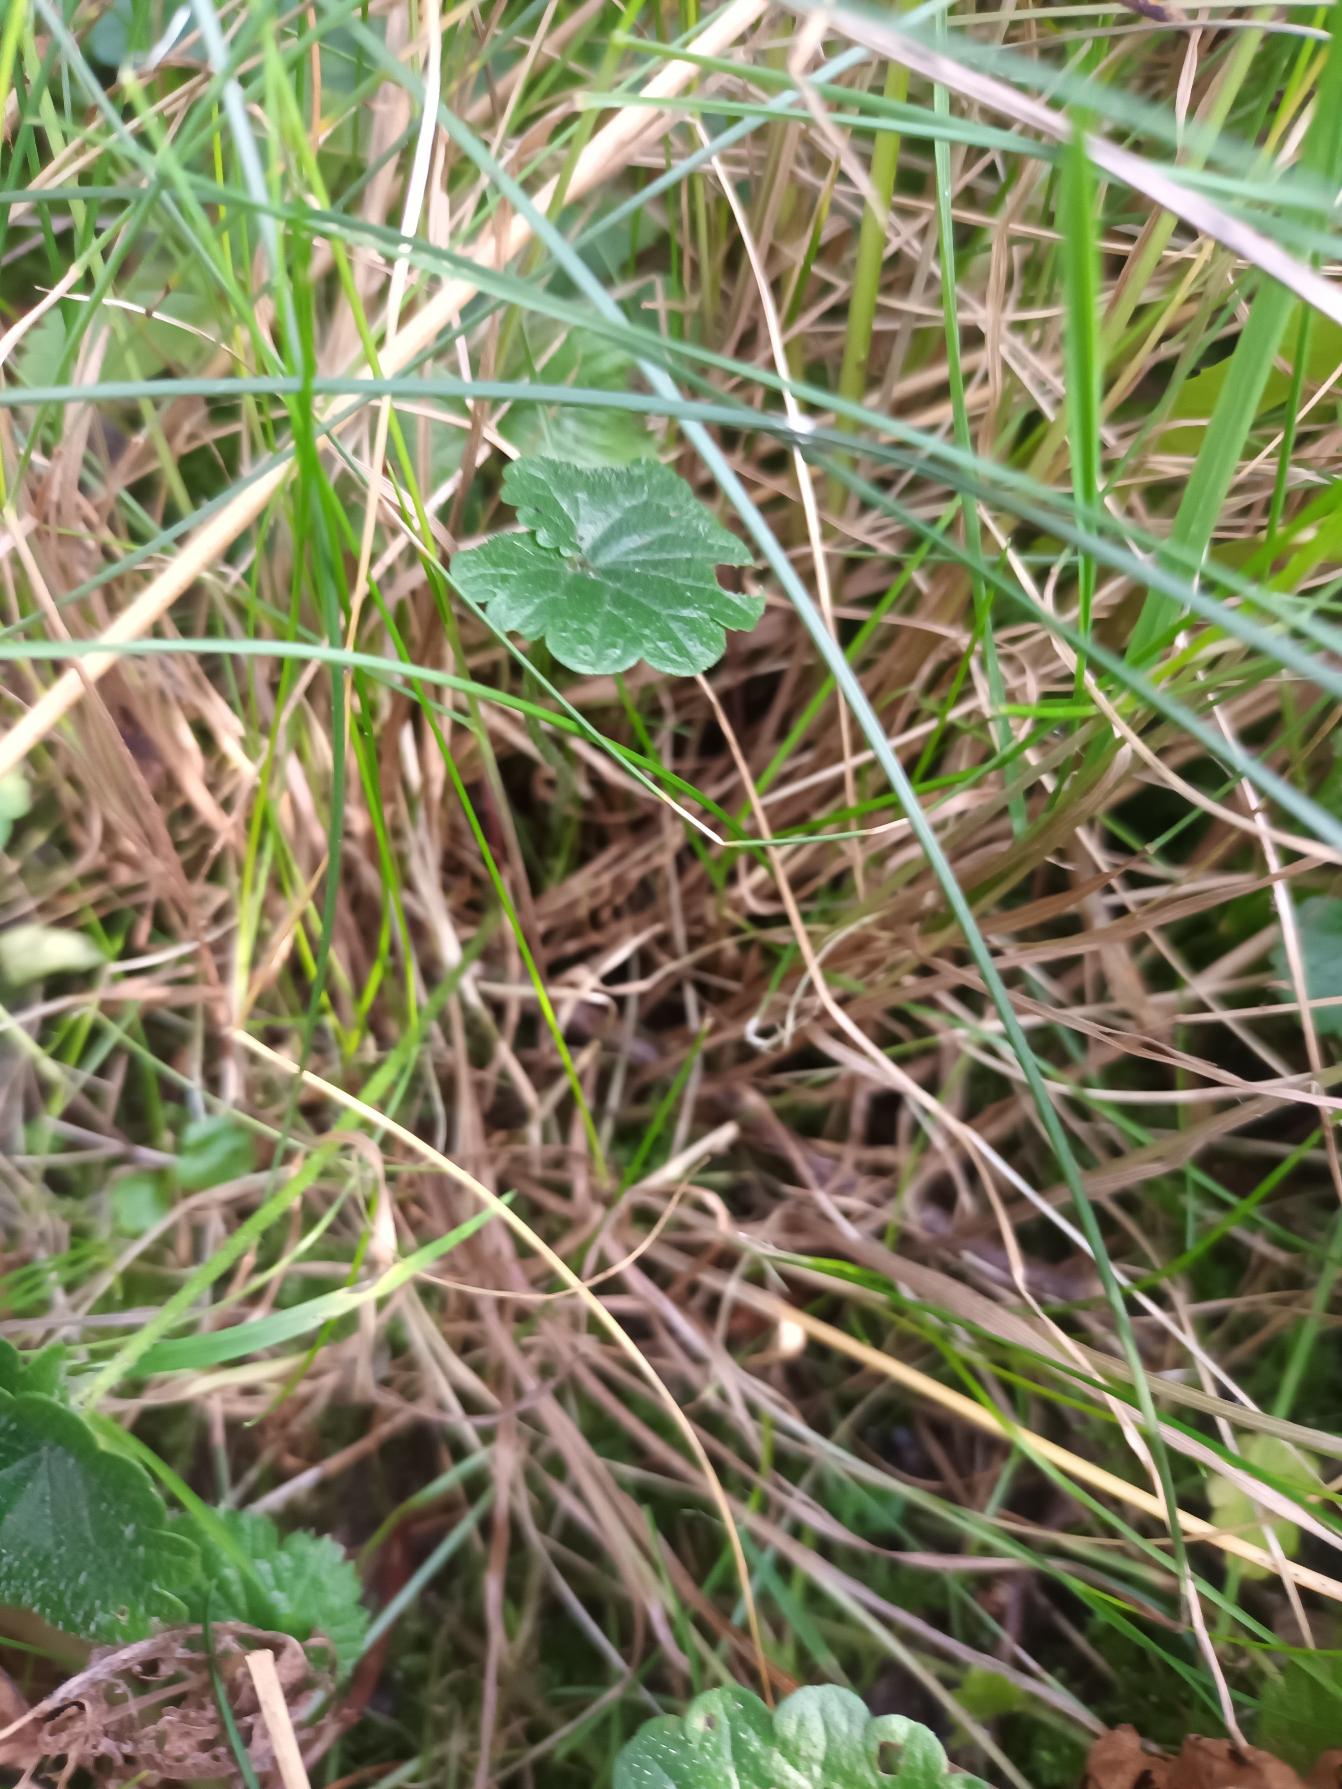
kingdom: Plantae
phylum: Tracheophyta
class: Liliopsida
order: Poales
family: Poaceae
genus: Festuca
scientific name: Festuca rubra
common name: Rød svingel
